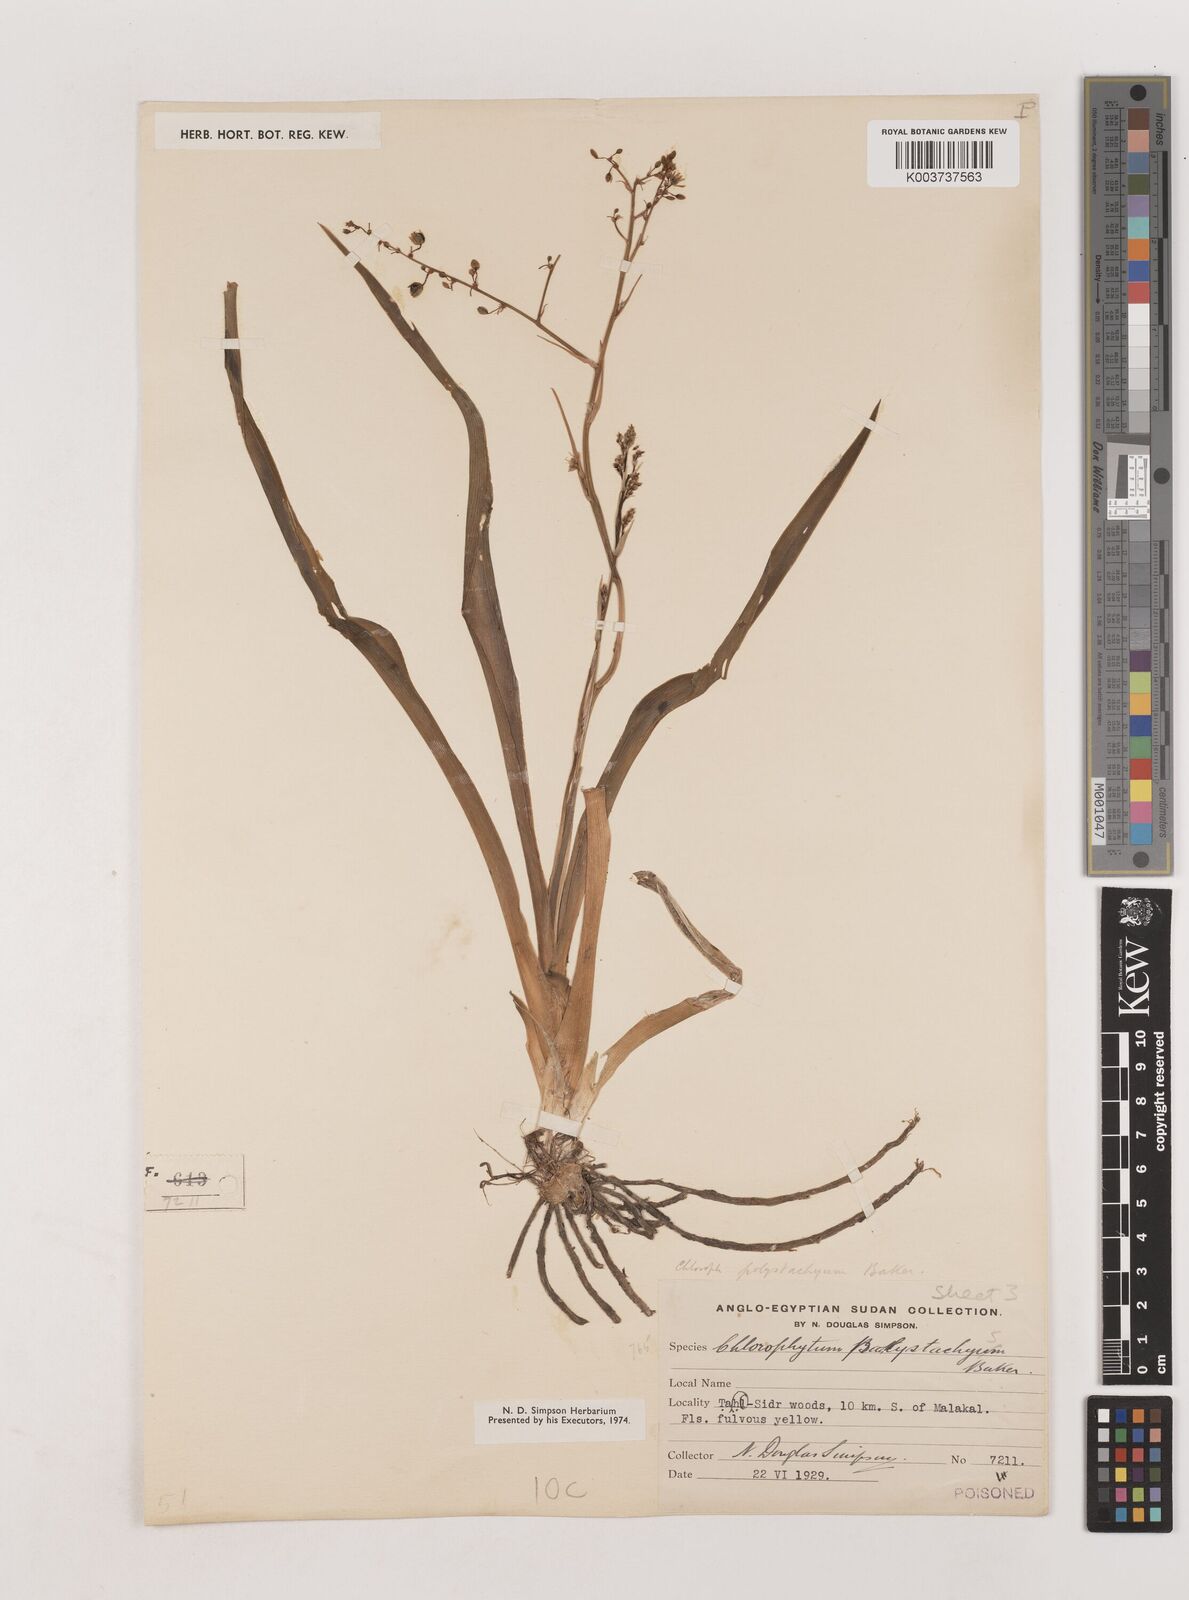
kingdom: Plantae
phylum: Tracheophyta
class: Liliopsida
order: Asparagales
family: Asparagaceae
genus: Chlorophytum
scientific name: Chlorophytum polystachys
